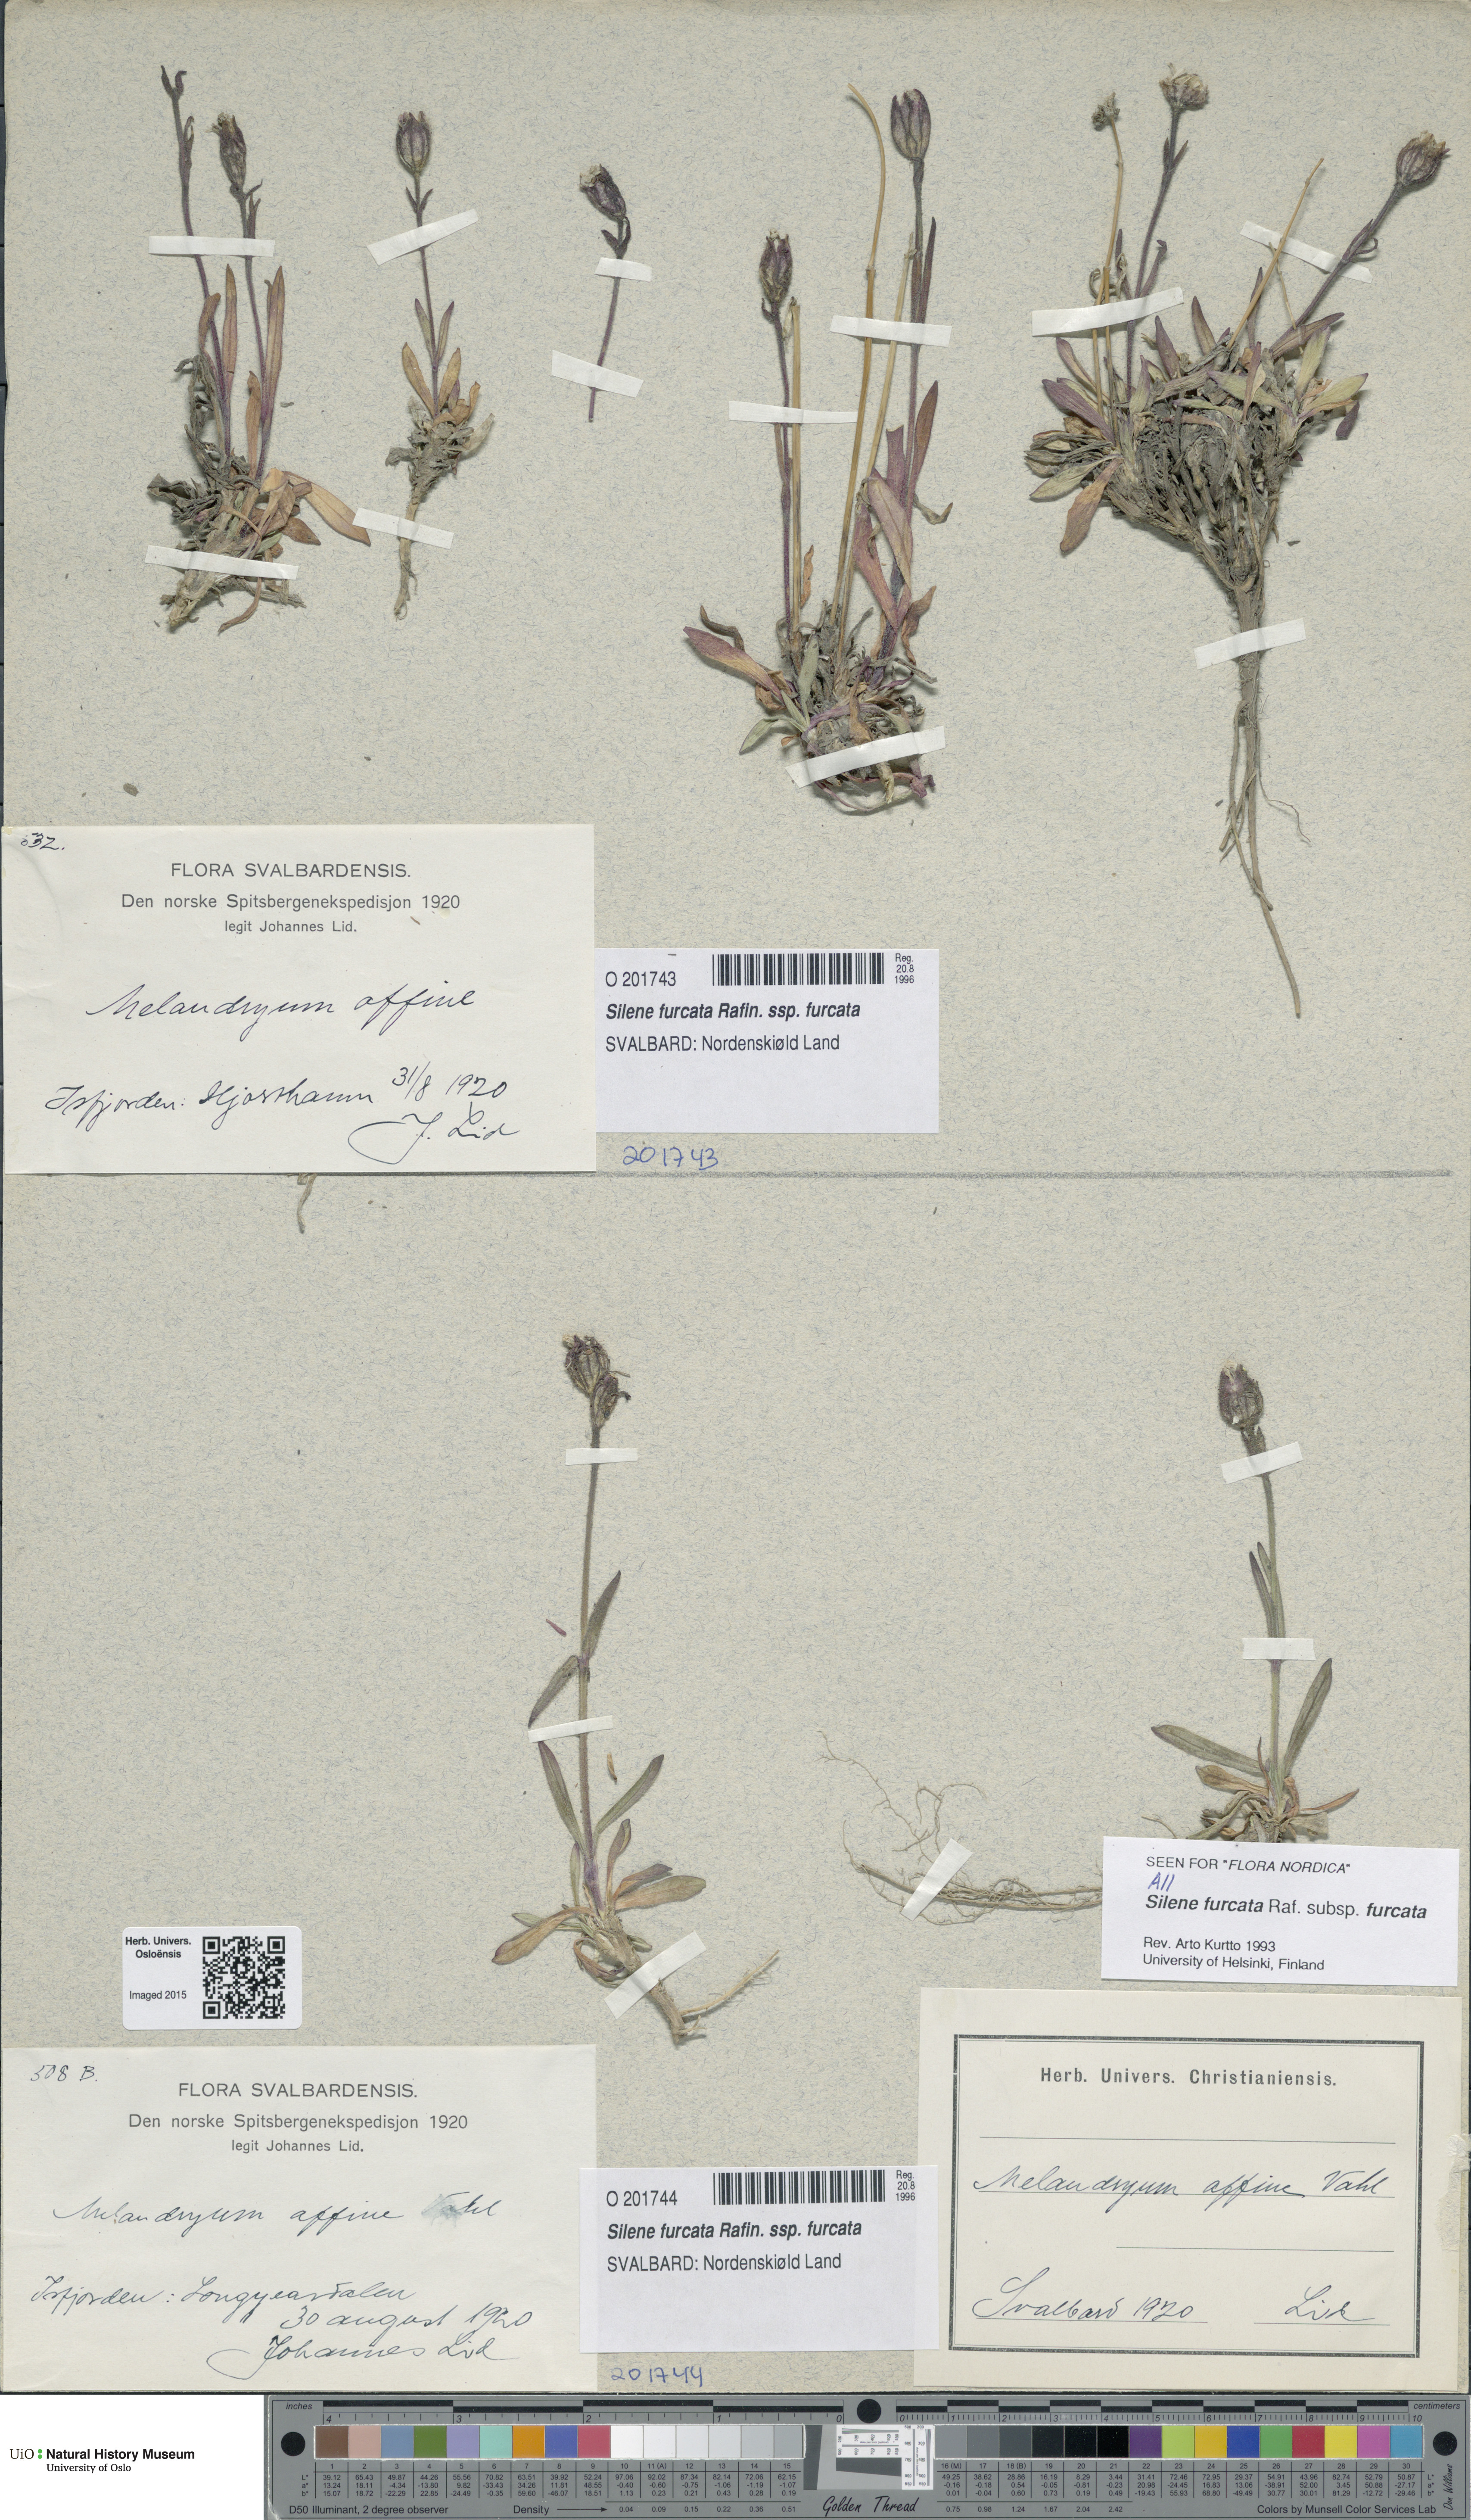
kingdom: Plantae
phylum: Tracheophyta
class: Magnoliopsida
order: Caryophyllales
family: Caryophyllaceae
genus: Silene
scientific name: Silene involucrata
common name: Greater arctic campion
